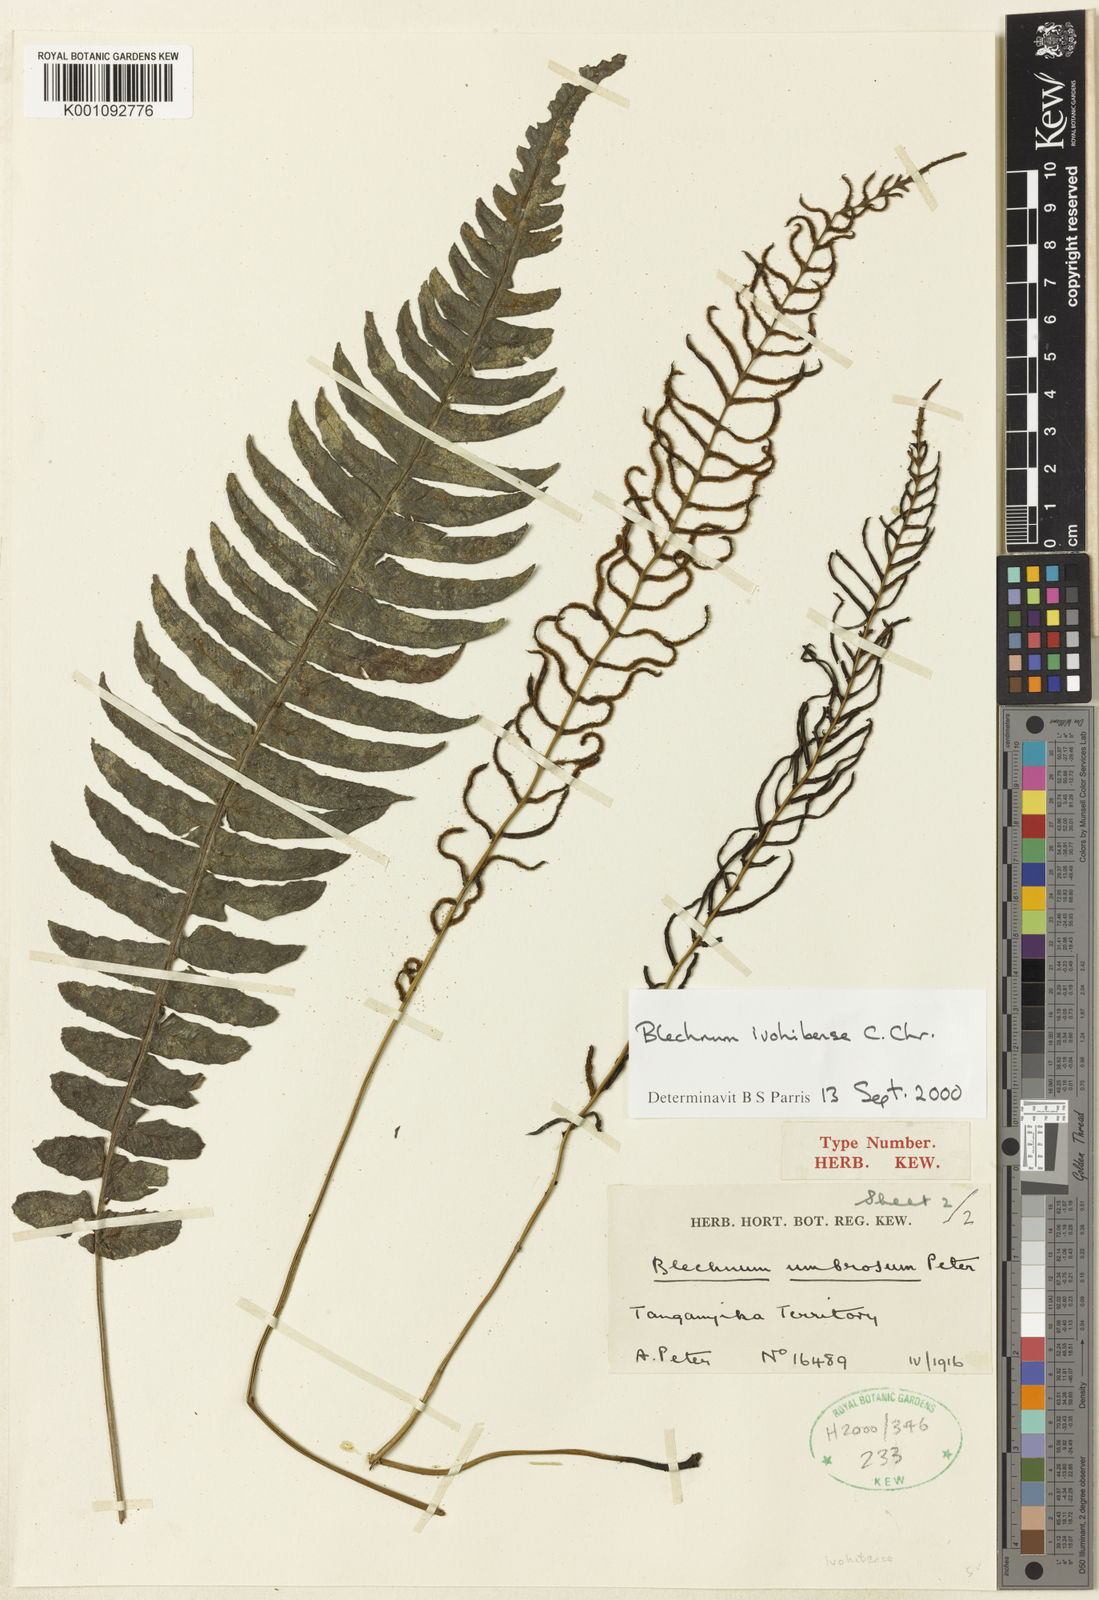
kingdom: Plantae
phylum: Tracheophyta
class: Polypodiopsida
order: Polypodiales
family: Blechnaceae
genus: Cranfillia
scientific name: Cranfillia bakeri
